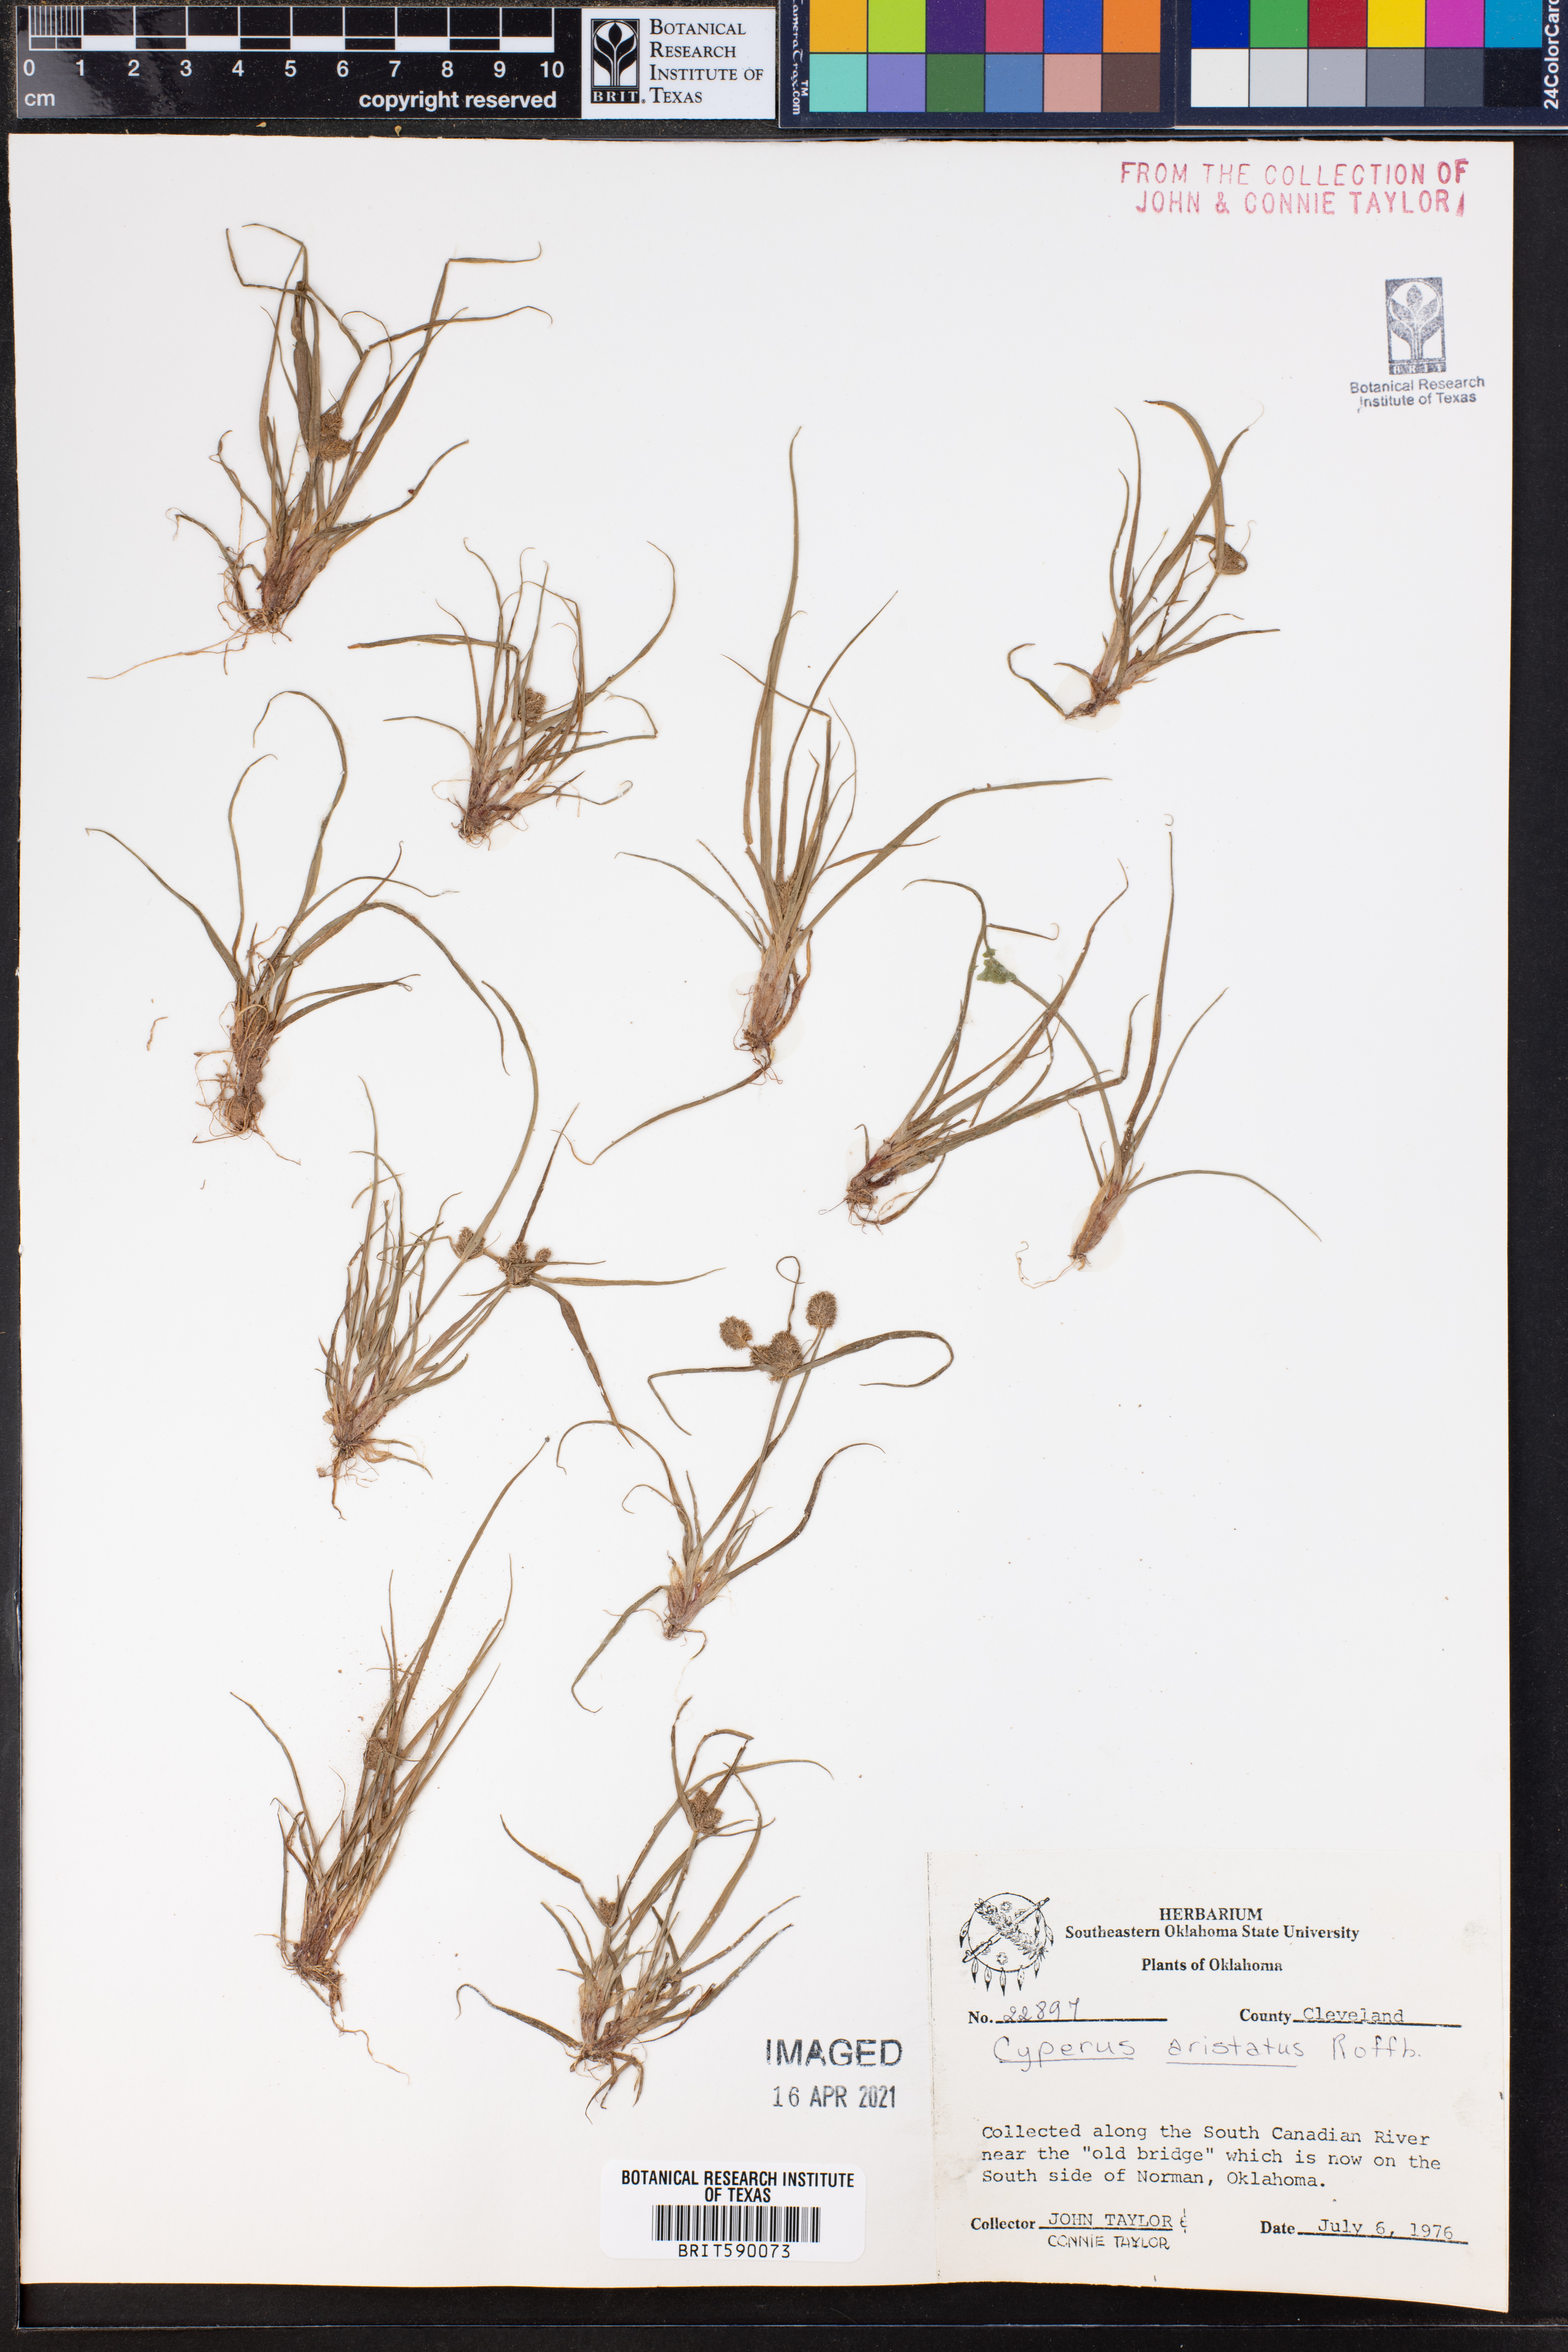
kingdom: Plantae
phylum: Tracheophyta
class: Liliopsida
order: Poales
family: Cyperaceae
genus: Cyperus
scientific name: Cyperus squarrosus
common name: Awned cyperus
